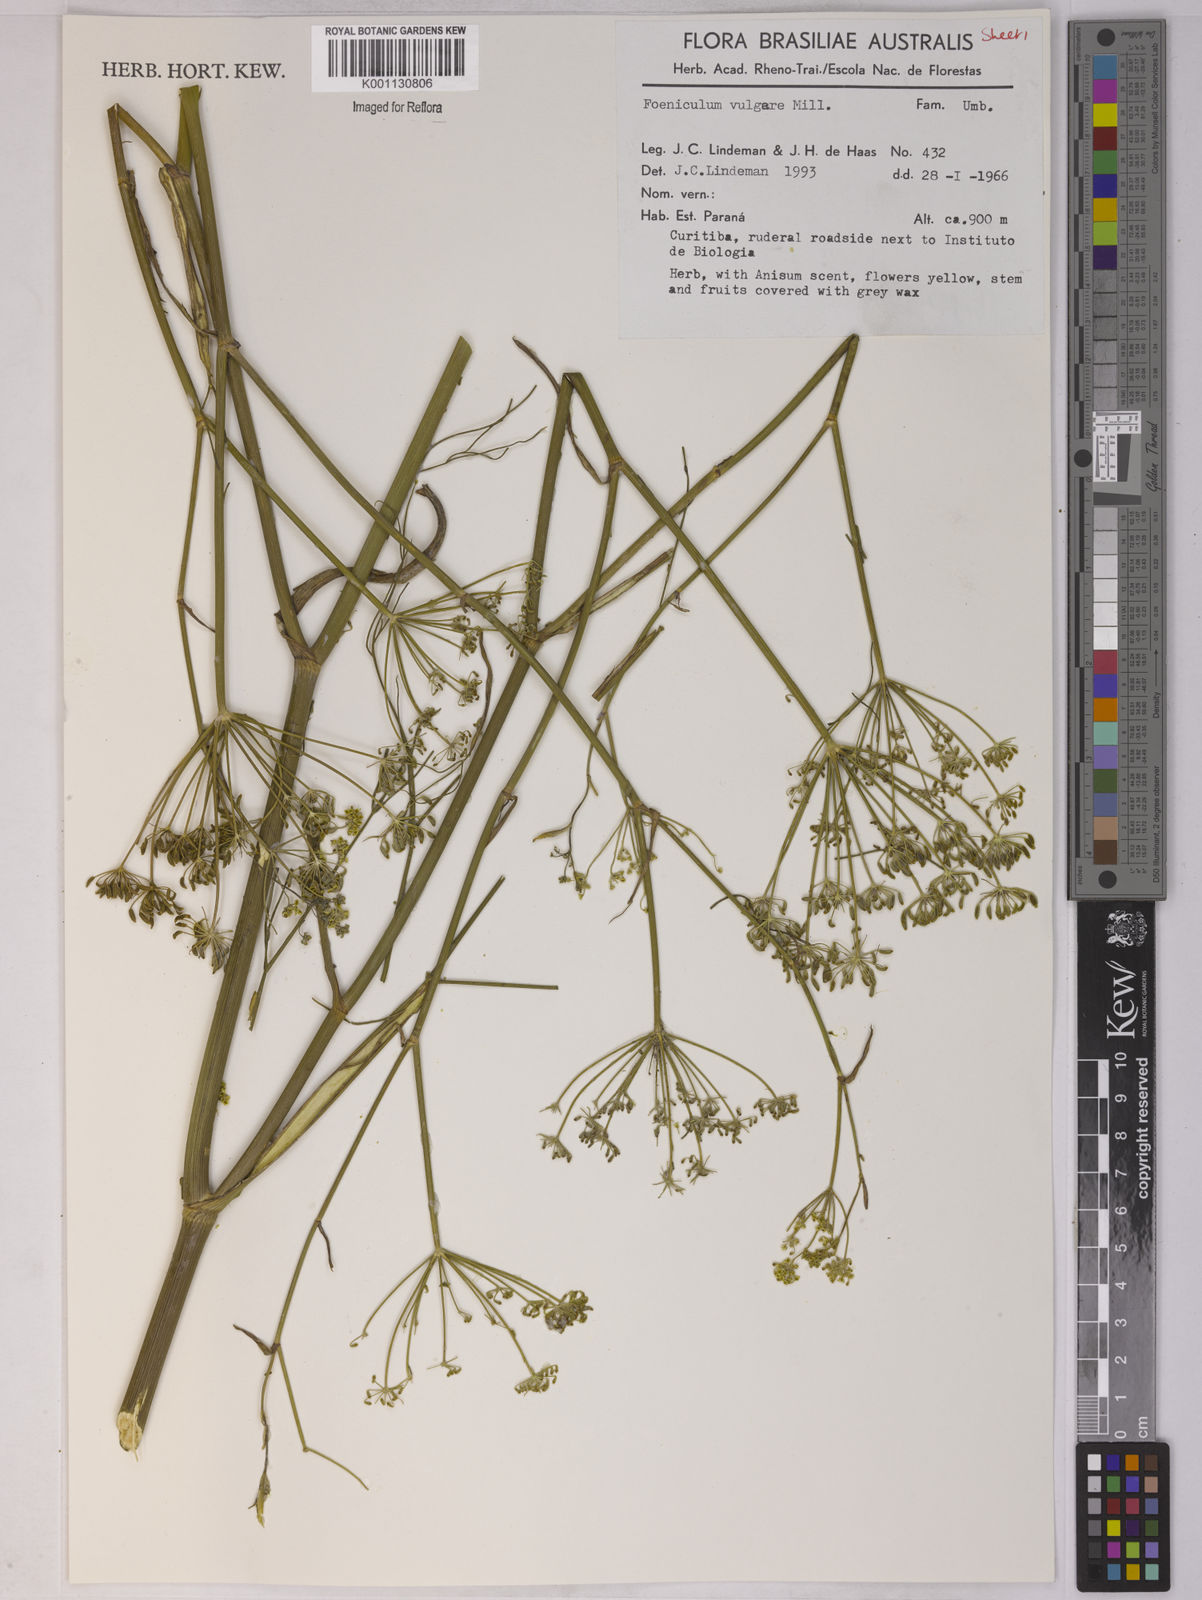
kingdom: Plantae
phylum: Tracheophyta
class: Magnoliopsida
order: Apiales
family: Apiaceae
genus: Foeniculum
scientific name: Foeniculum vulgare
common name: Fennel
